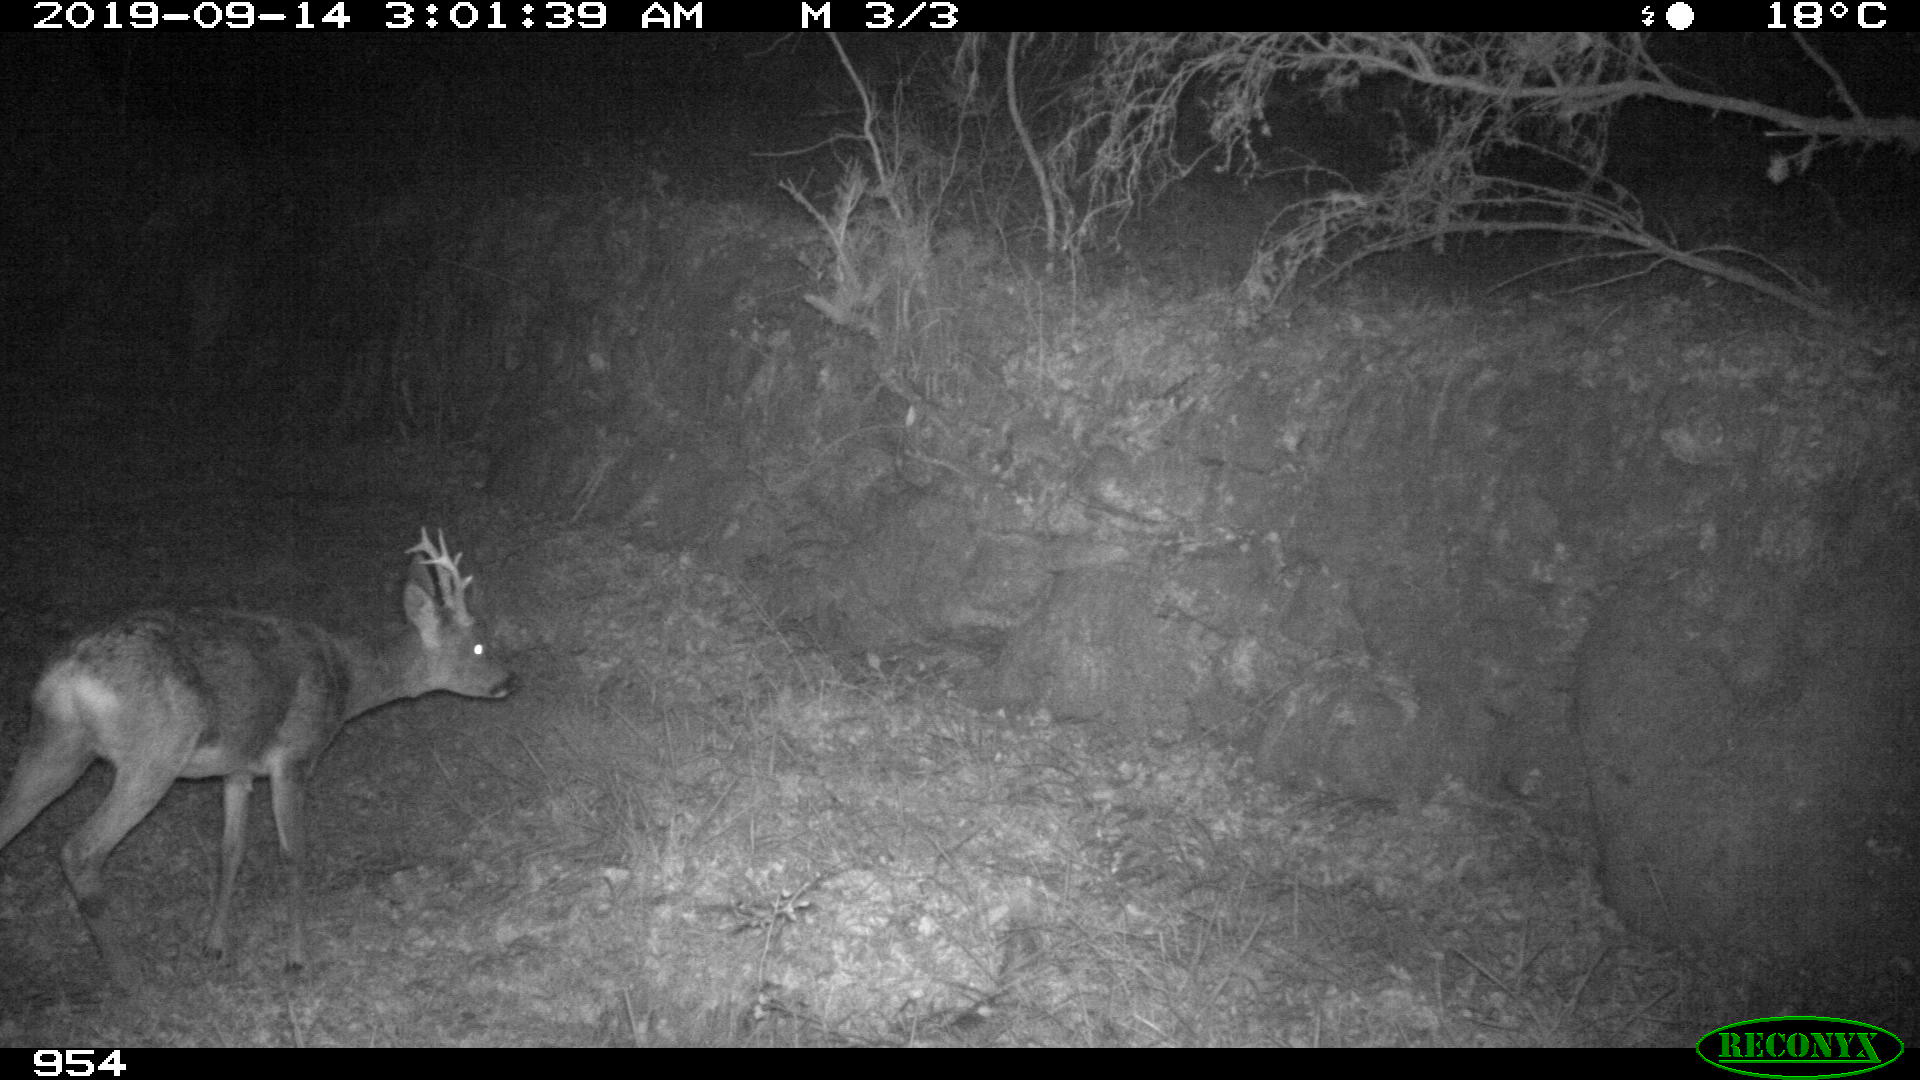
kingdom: Animalia
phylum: Chordata
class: Mammalia
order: Artiodactyla
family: Cervidae
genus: Capreolus
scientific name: Capreolus capreolus
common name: Western roe deer
